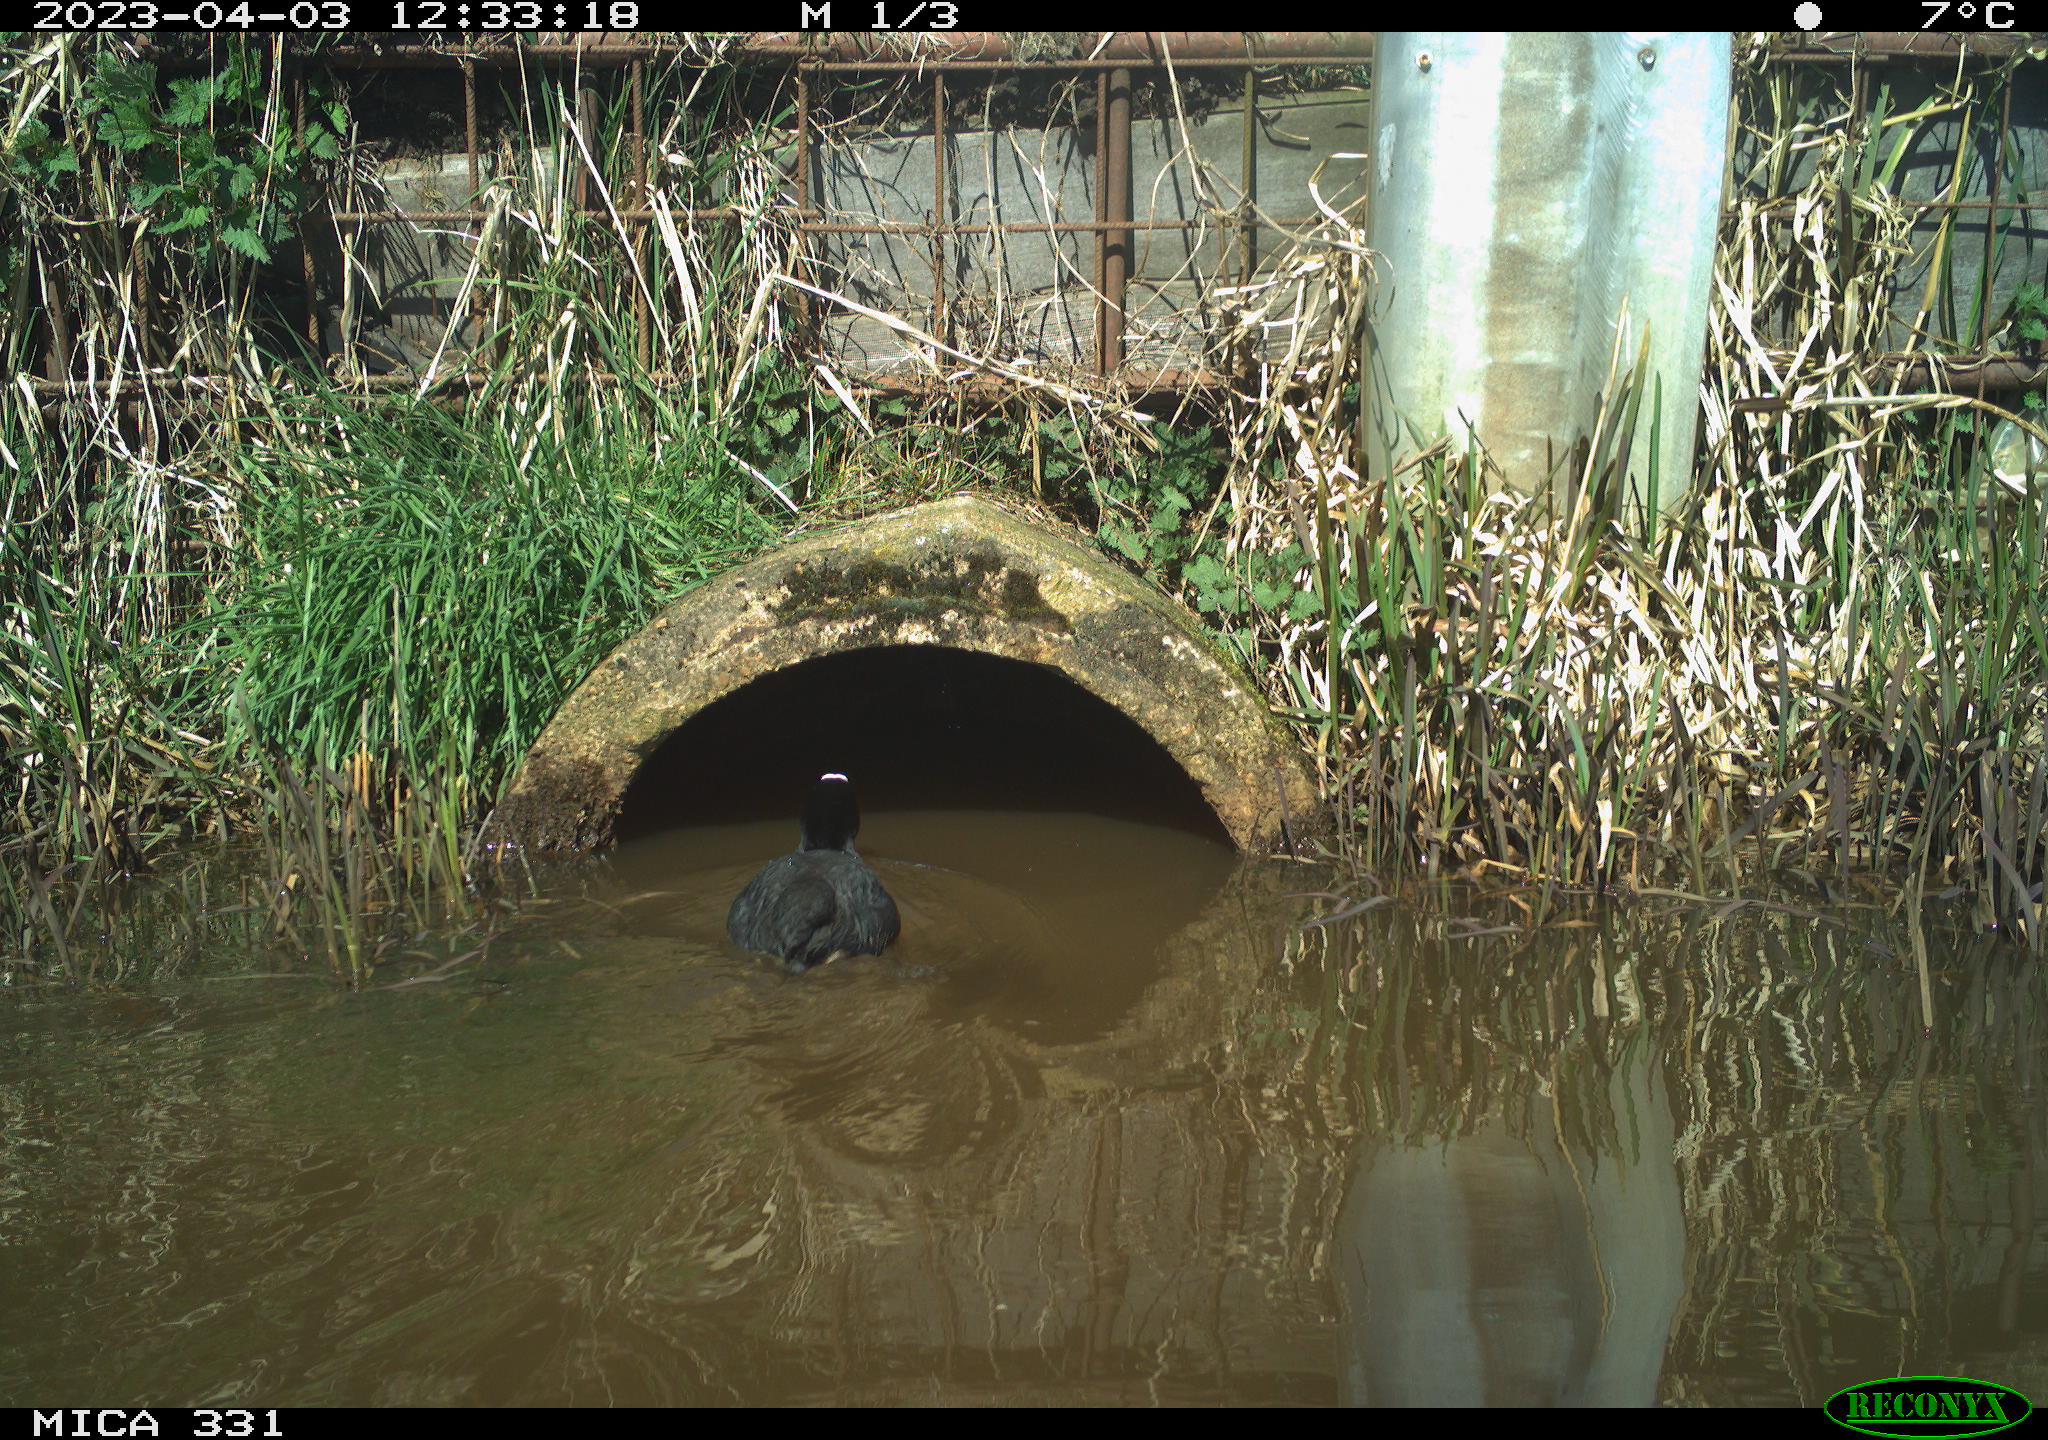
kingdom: Animalia
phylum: Chordata
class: Aves
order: Gruiformes
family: Rallidae
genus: Fulica
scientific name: Fulica atra
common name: Eurasian coot
